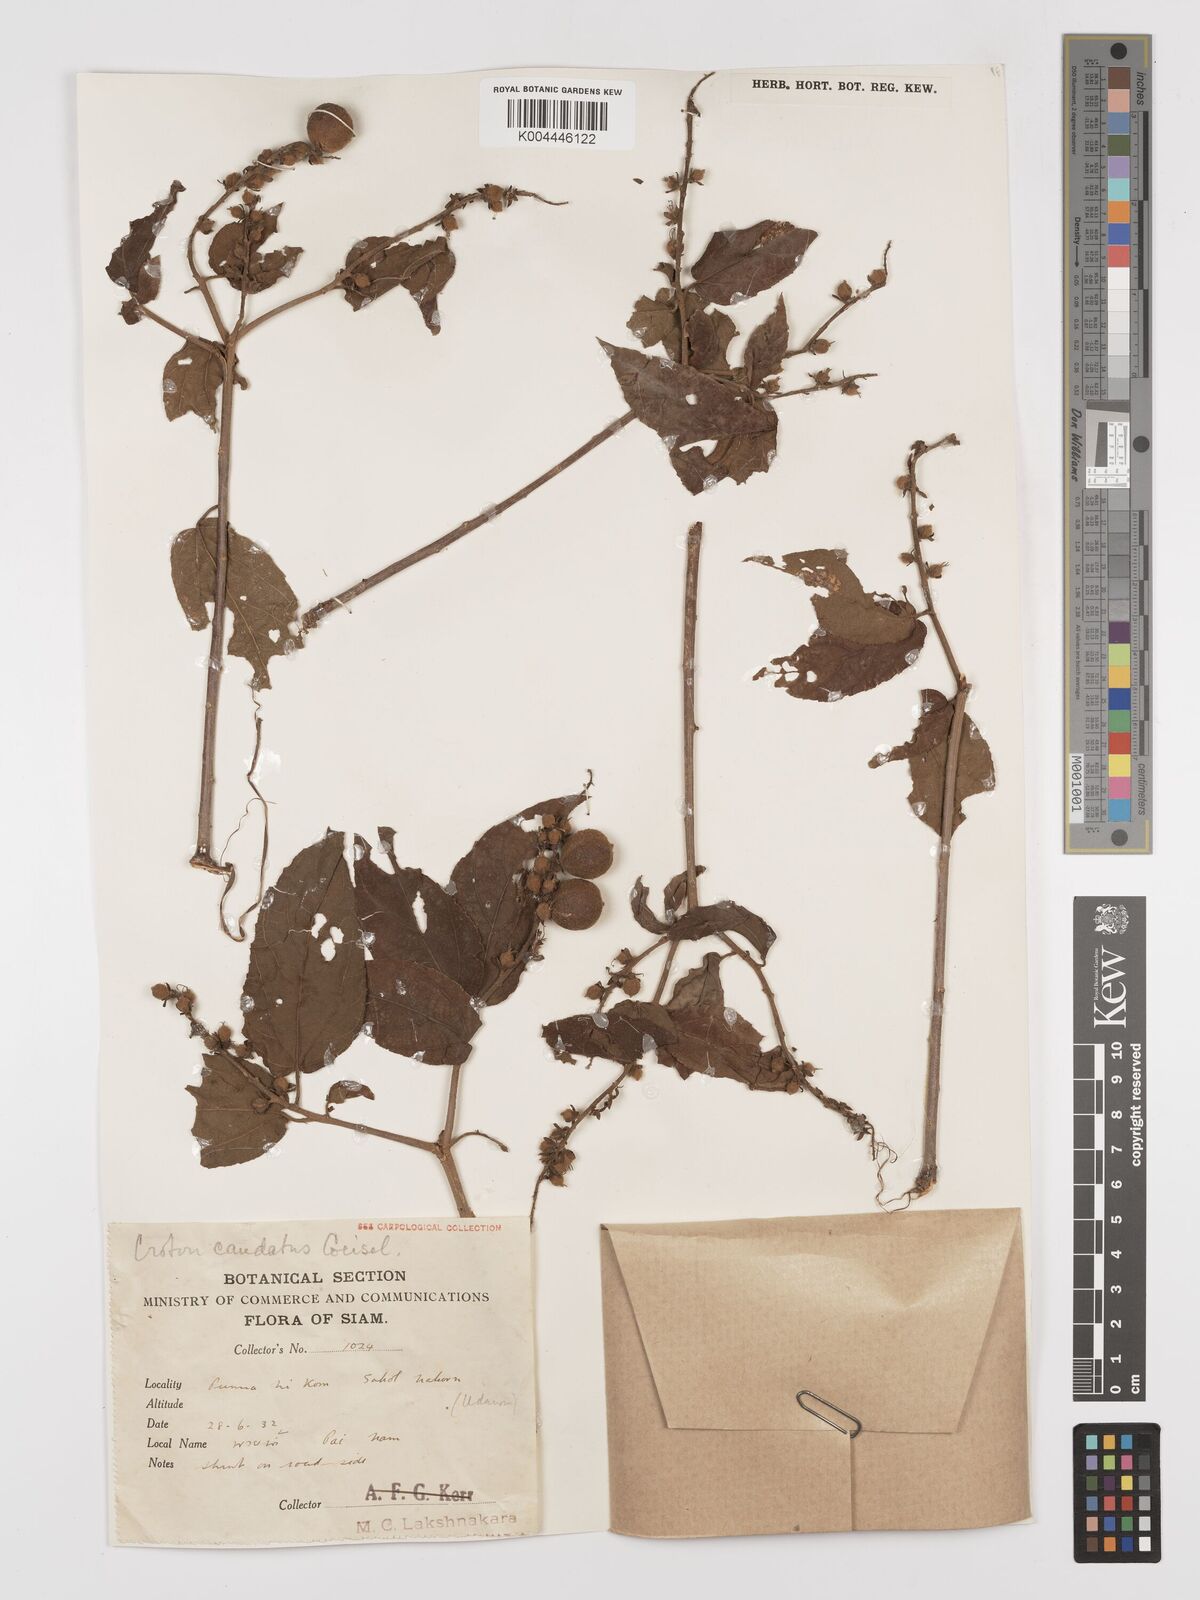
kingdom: Plantae
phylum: Tracheophyta
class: Magnoliopsida
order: Malpighiales
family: Euphorbiaceae
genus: Croton
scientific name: Croton caudatus
